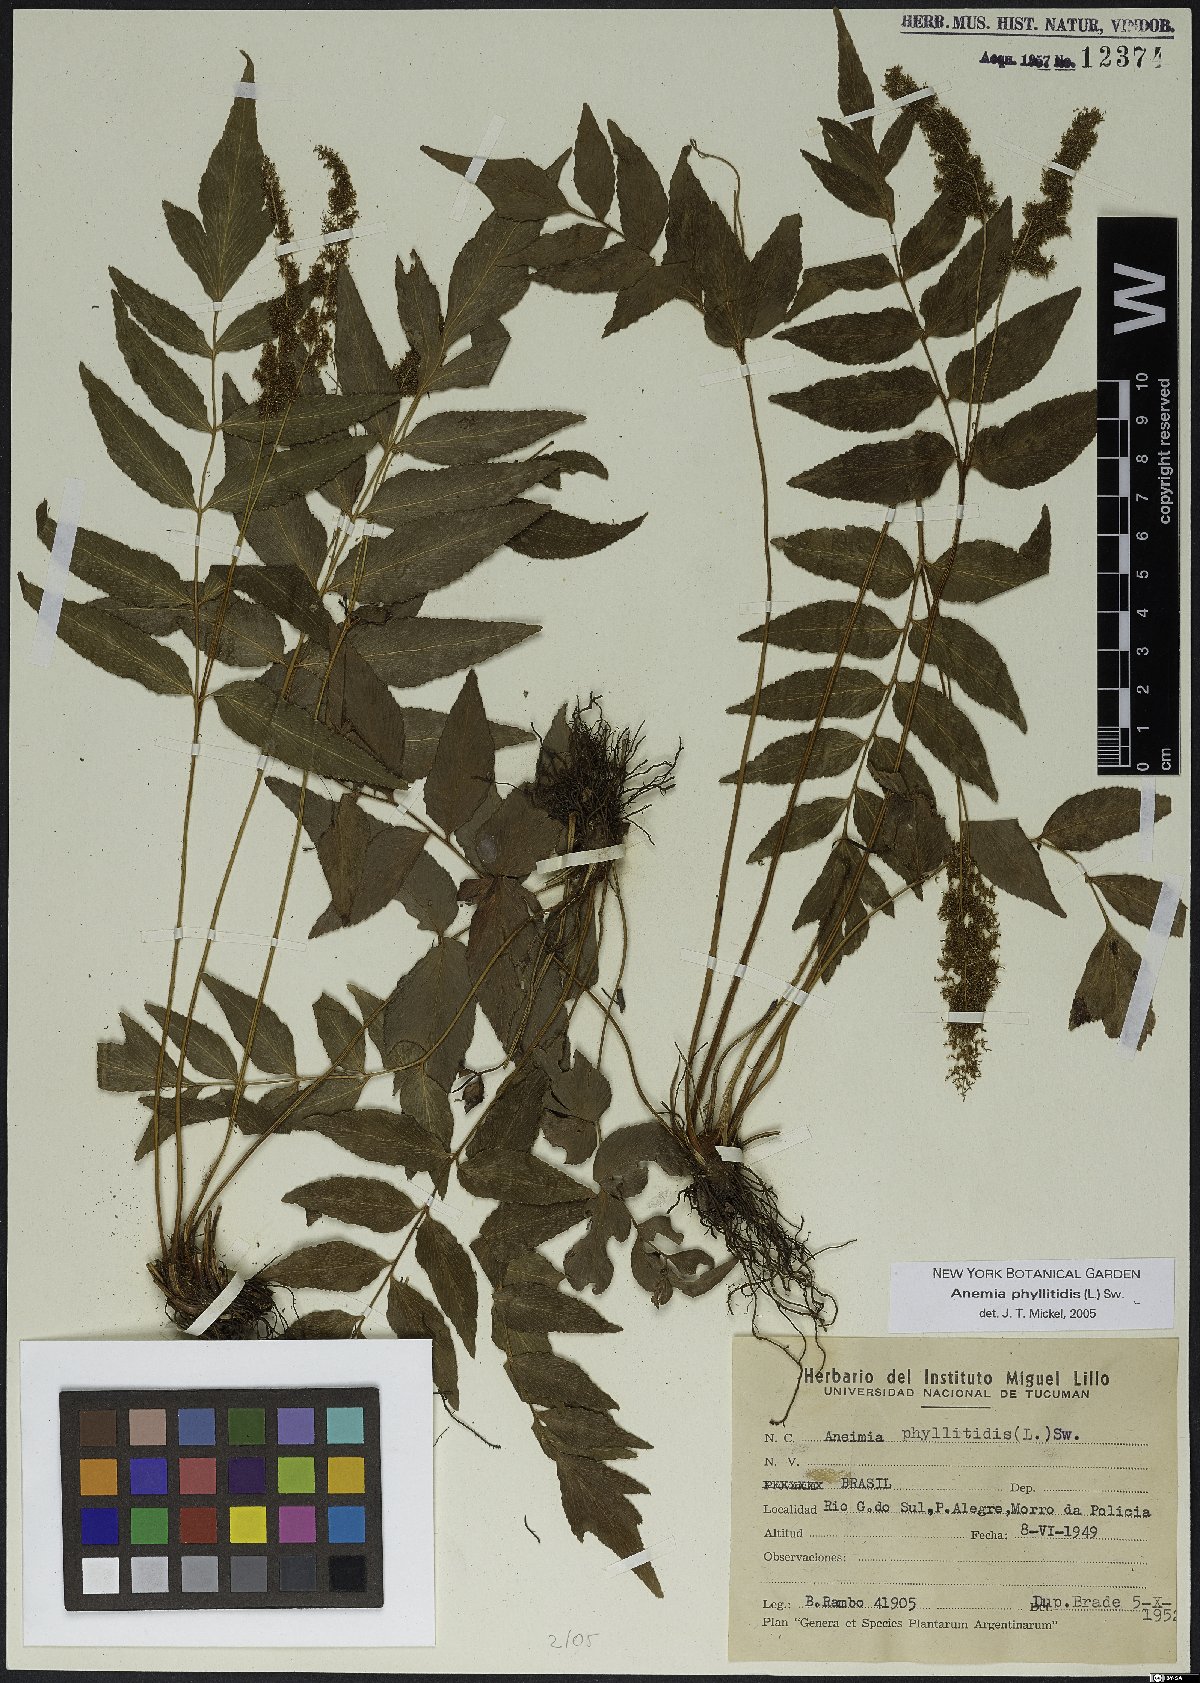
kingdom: Plantae
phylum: Tracheophyta
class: Polypodiopsida
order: Schizaeales
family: Anemiaceae
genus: Anemia
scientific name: Anemia phyllitidis
